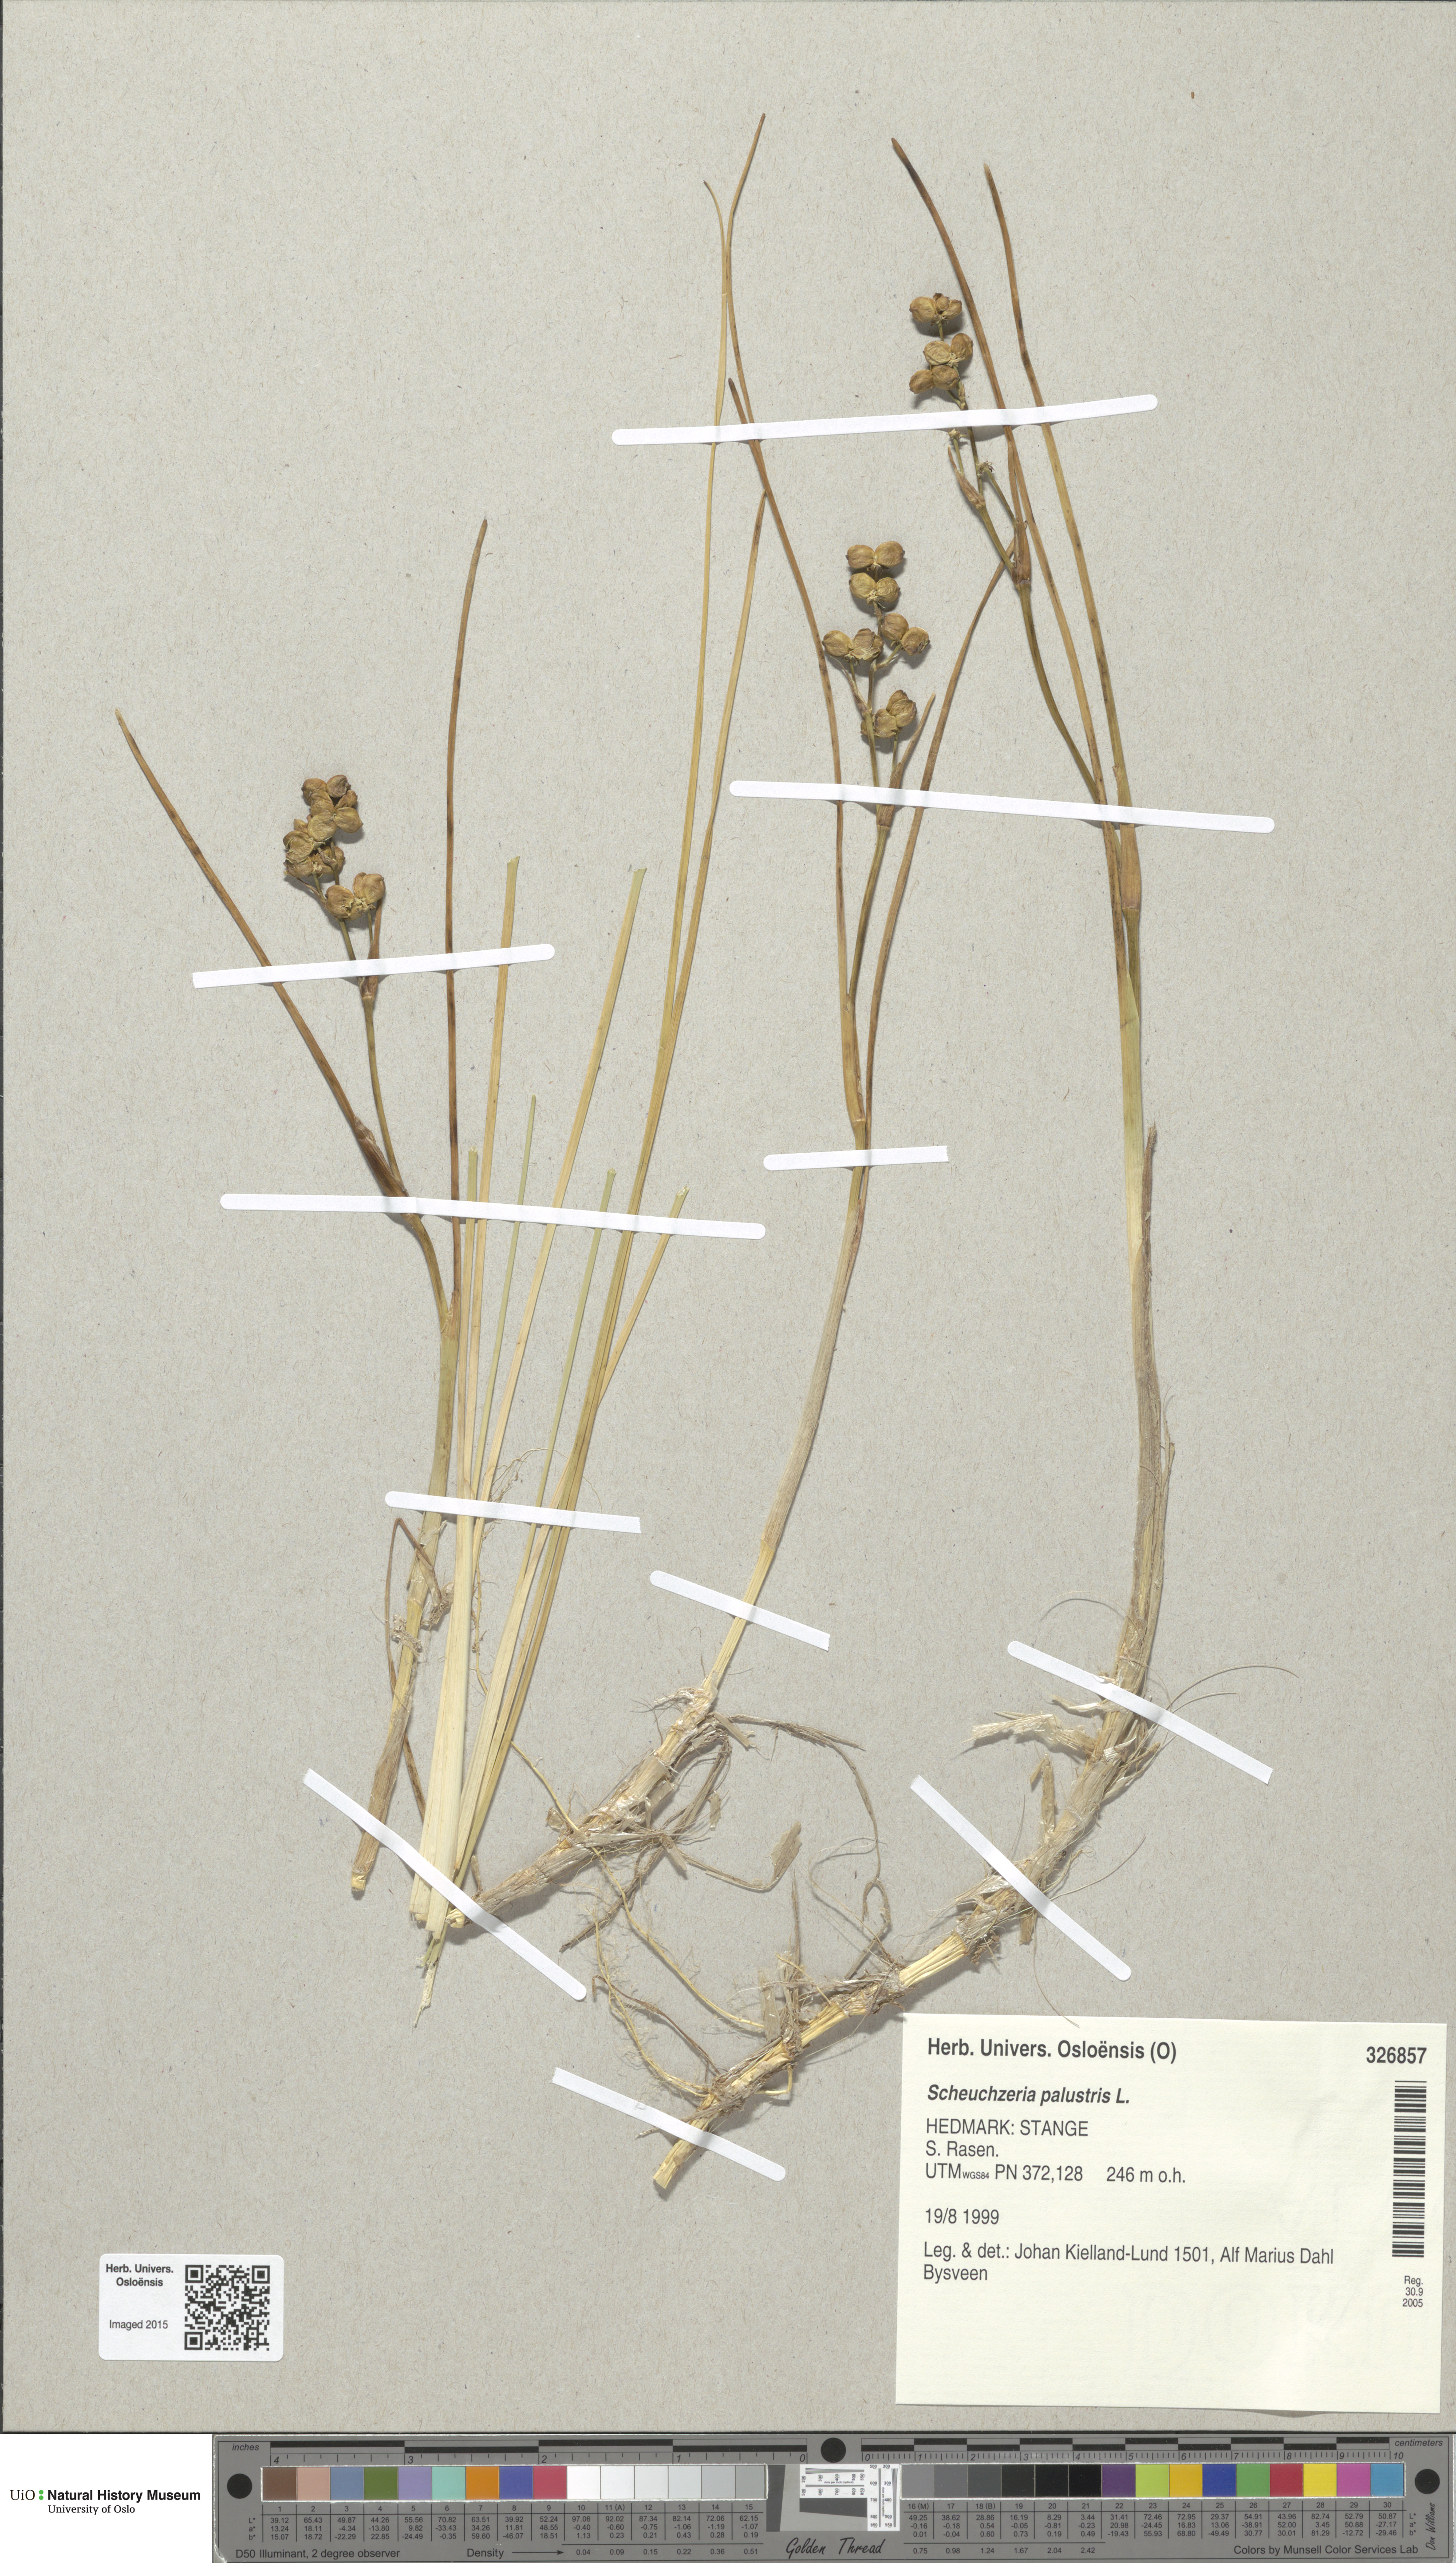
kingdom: Plantae
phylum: Tracheophyta
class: Liliopsida
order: Alismatales
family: Scheuchzeriaceae
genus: Scheuchzeria
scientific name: Scheuchzeria palustris
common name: Rannoch-rush
